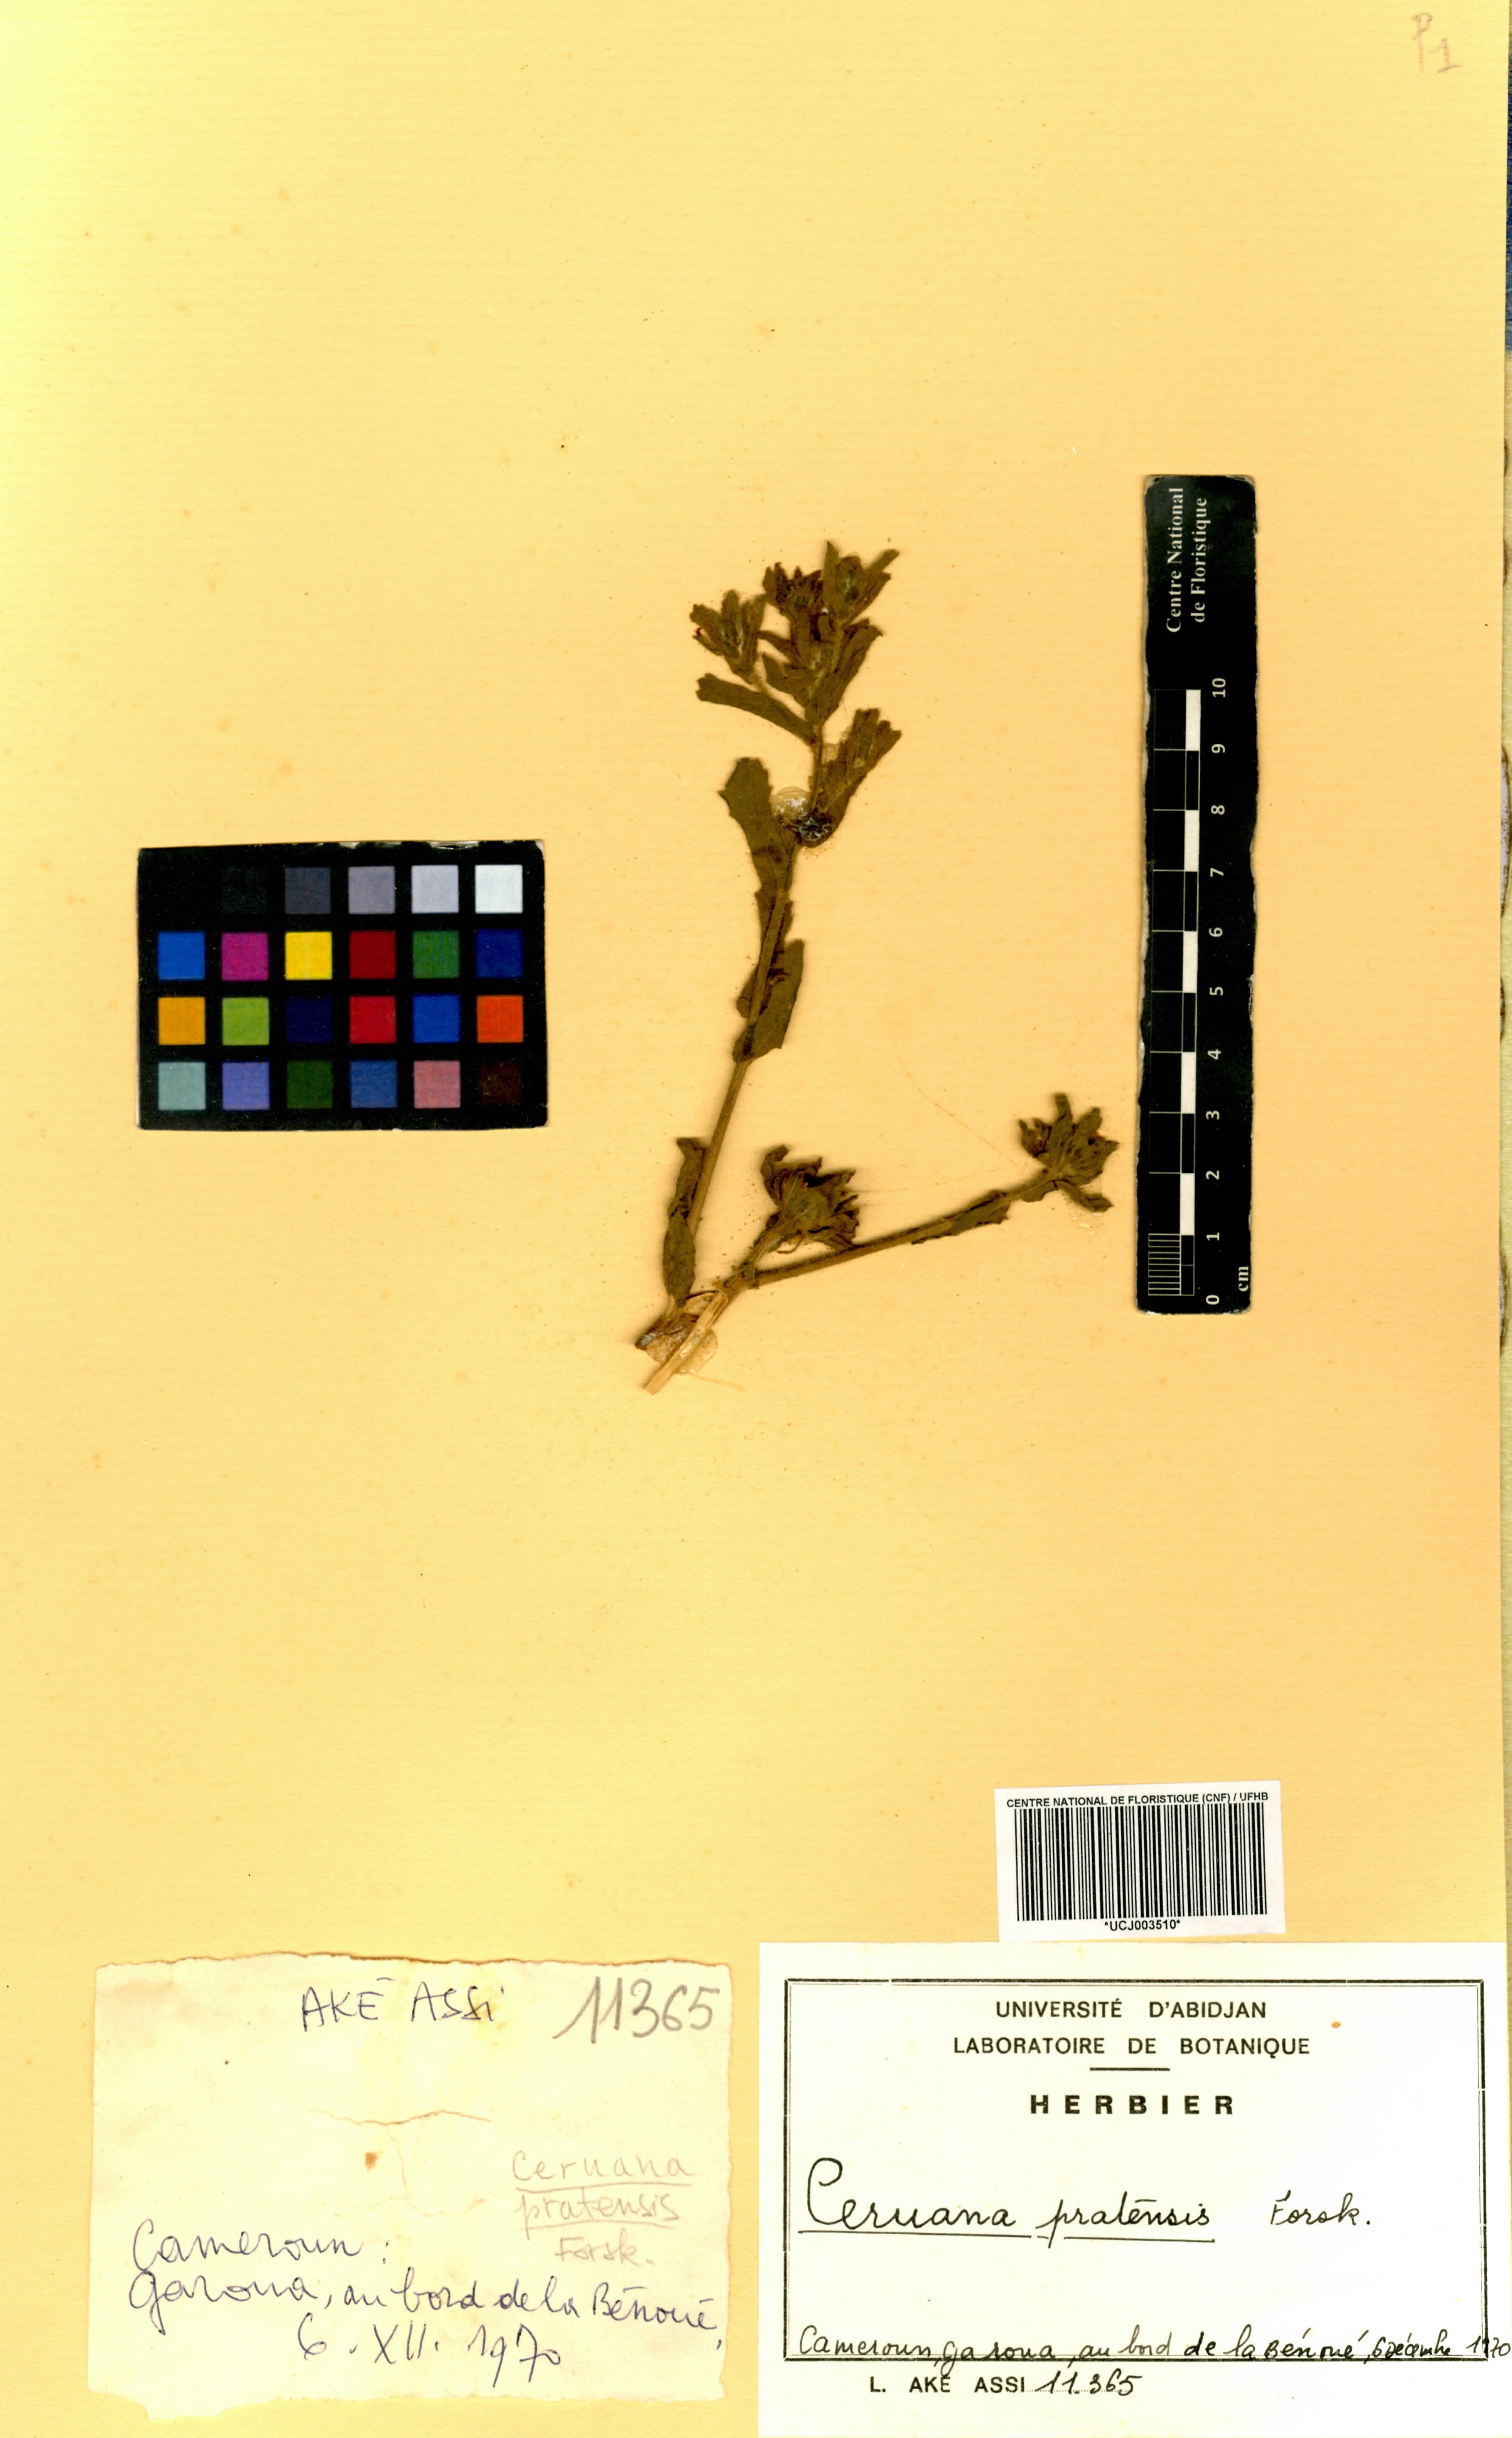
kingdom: Plantae
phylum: Tracheophyta
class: Magnoliopsida
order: Asterales
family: Asteraceae
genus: Ceruana
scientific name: Ceruana pratensis
